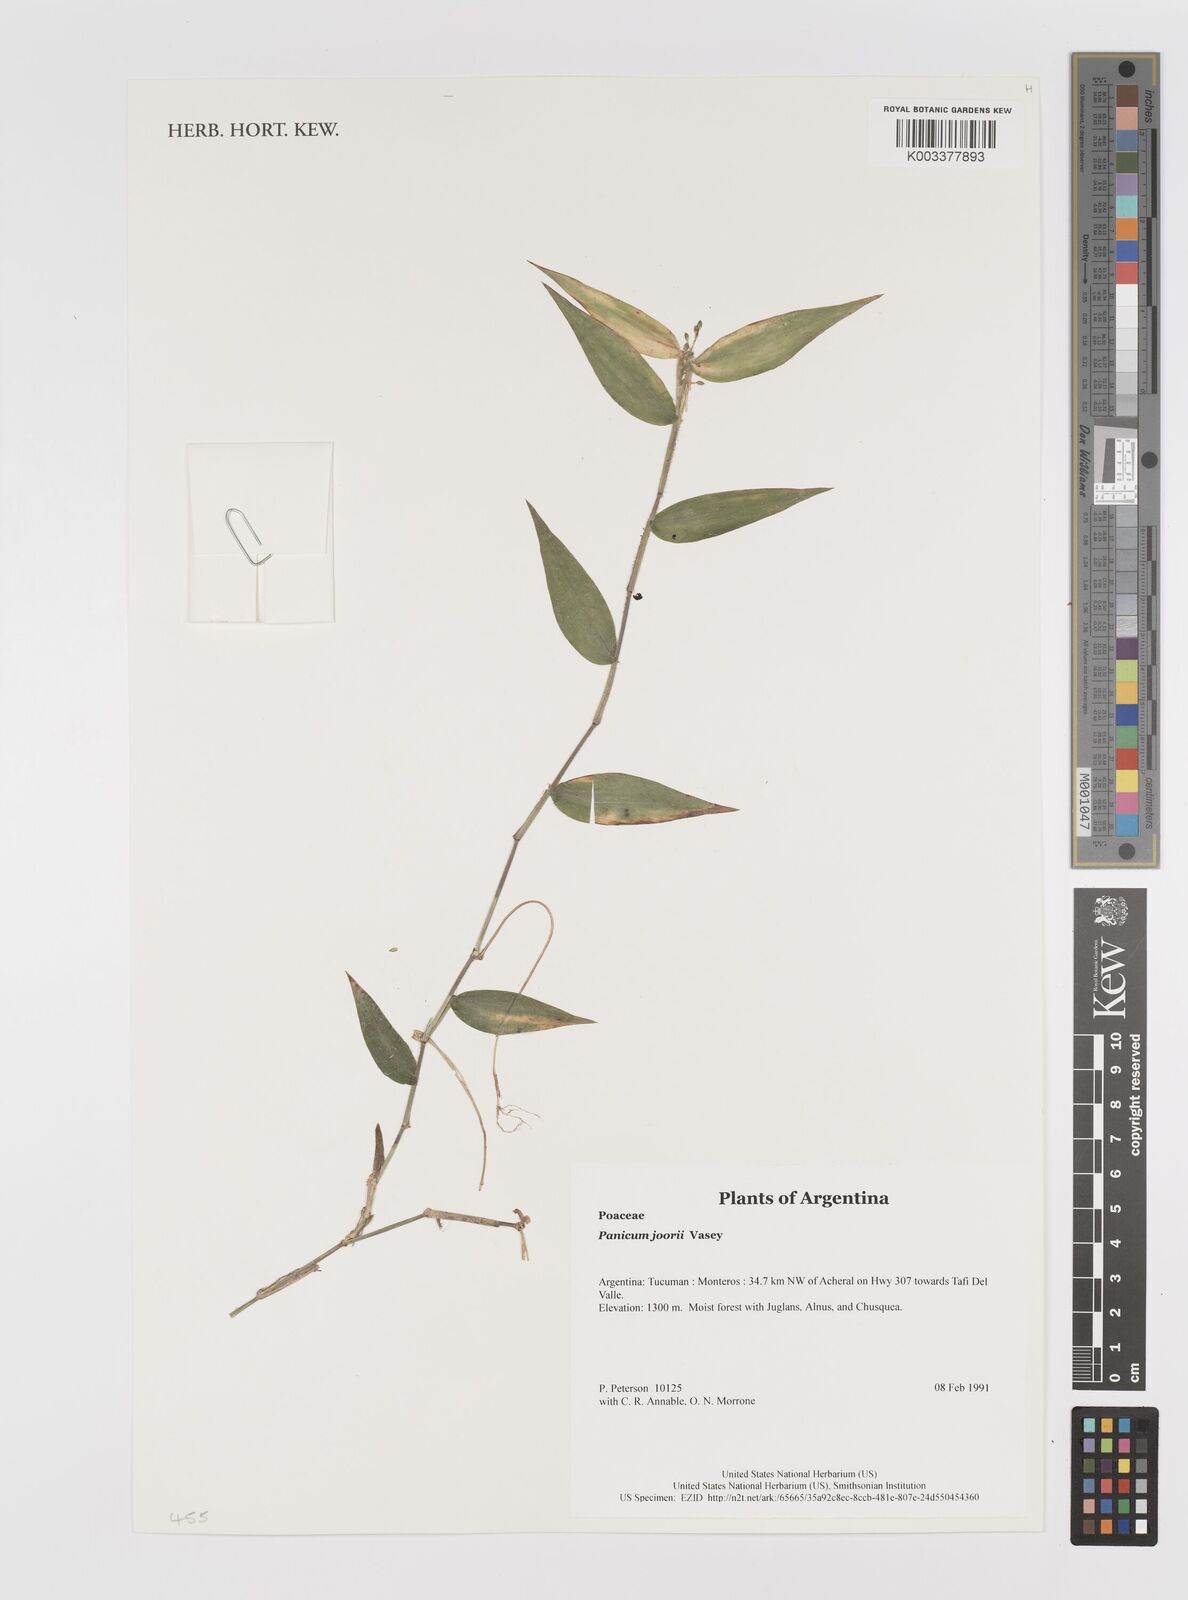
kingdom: Plantae
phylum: Tracheophyta
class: Liliopsida
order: Poales
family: Poaceae
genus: Dichanthelium
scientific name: Dichanthelium commutatum
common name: Variable witchgrass
